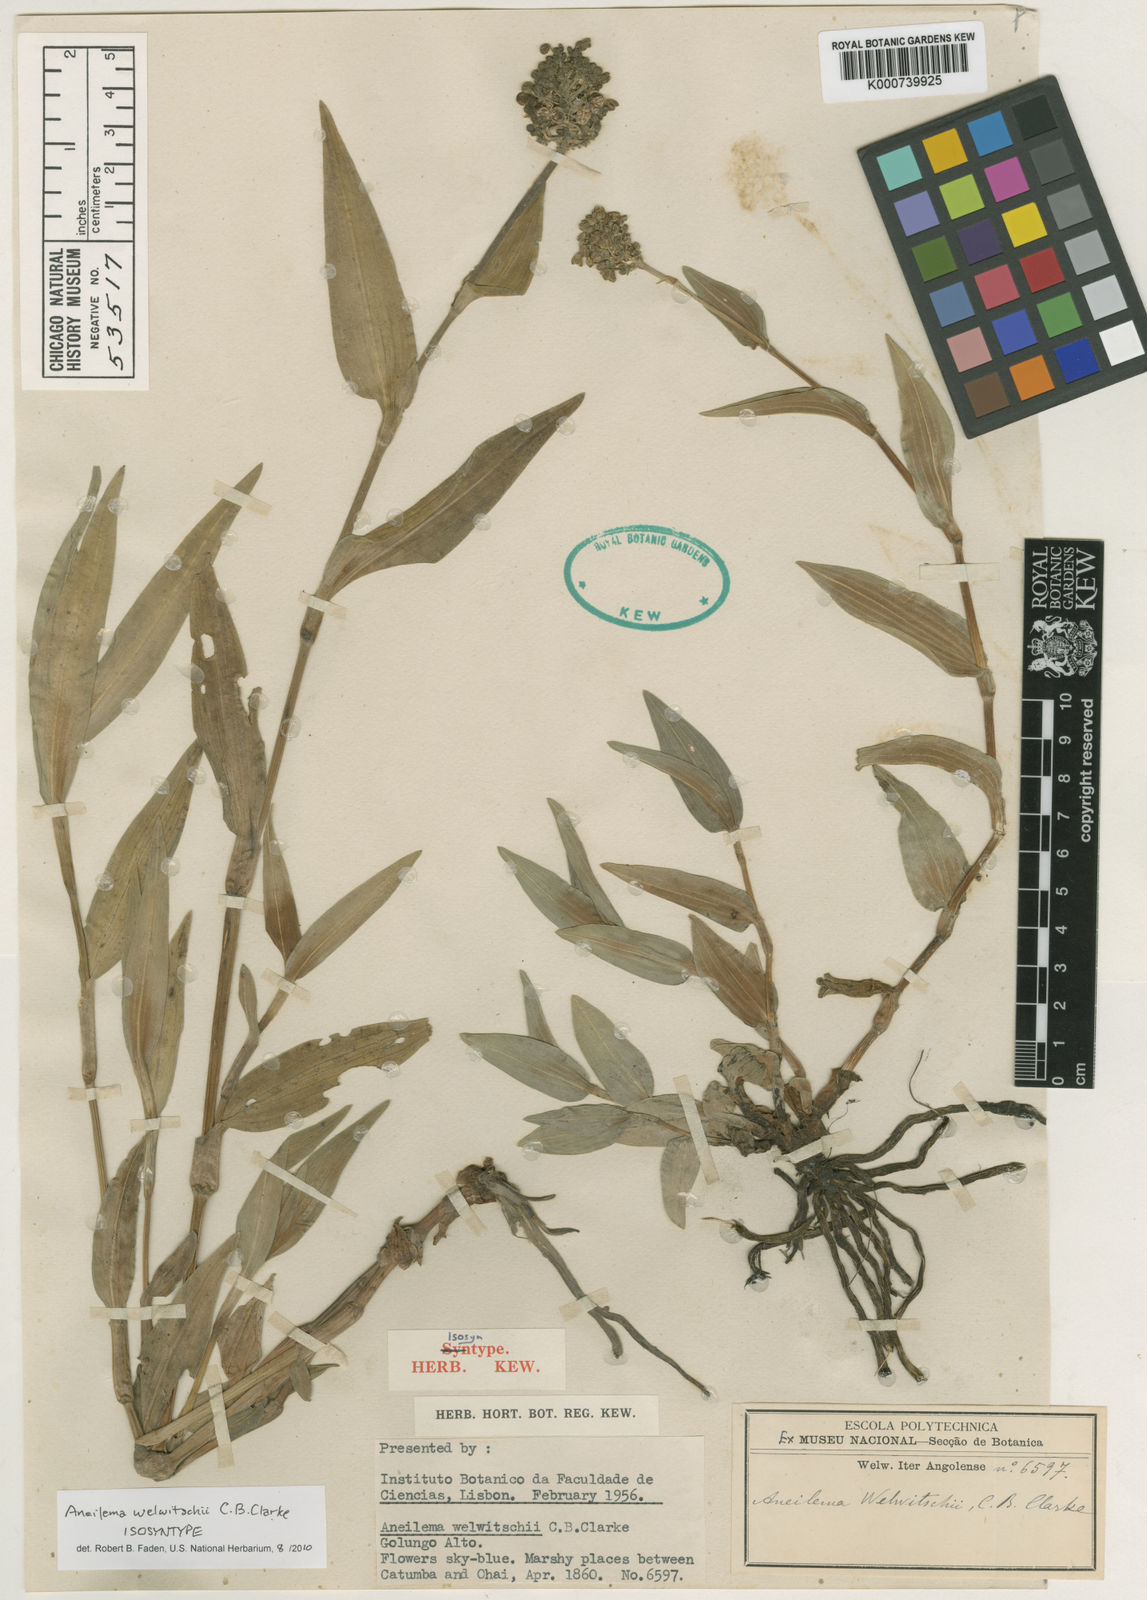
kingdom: Plantae
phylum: Tracheophyta
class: Liliopsida
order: Commelinales
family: Commelinaceae
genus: Aneilema
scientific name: Aneilema welwitschii
